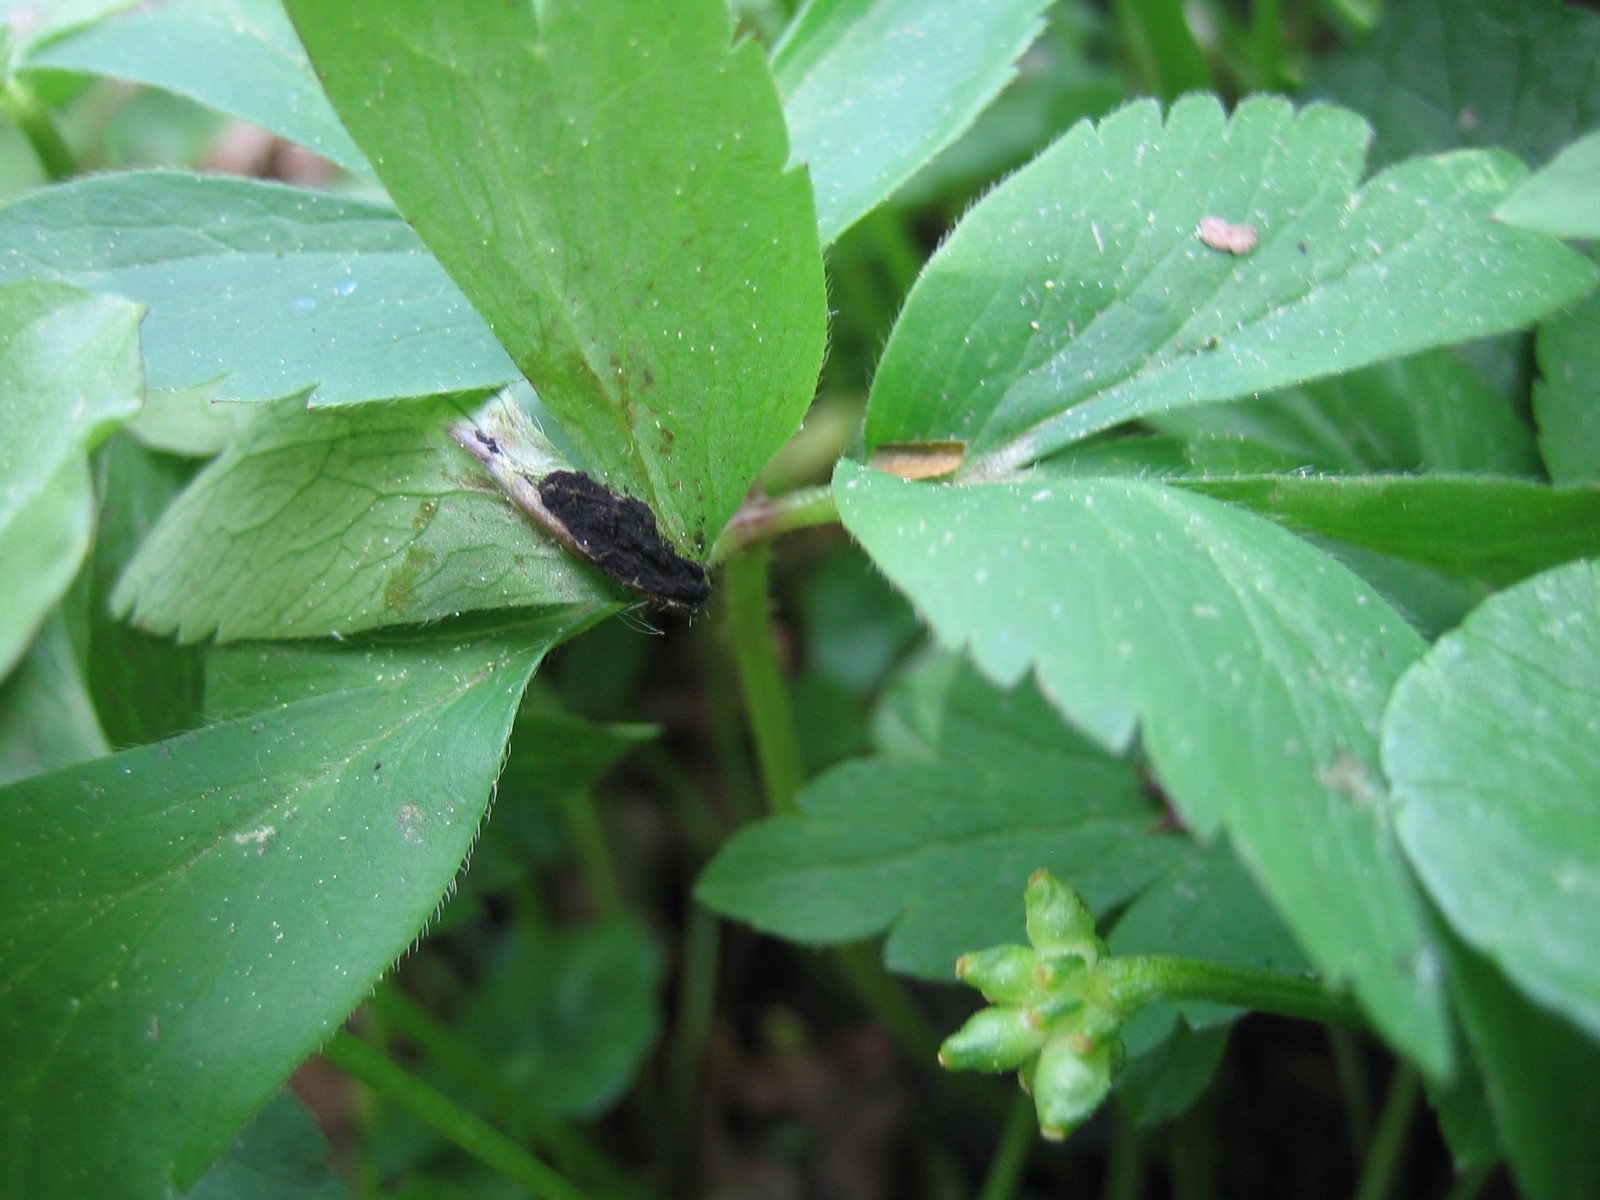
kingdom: Fungi
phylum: Basidiomycota
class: Ustilaginomycetes
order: Urocystidales
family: Urocystidaceae
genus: Urocystis
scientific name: Urocystis anemones
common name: anemone-brand
